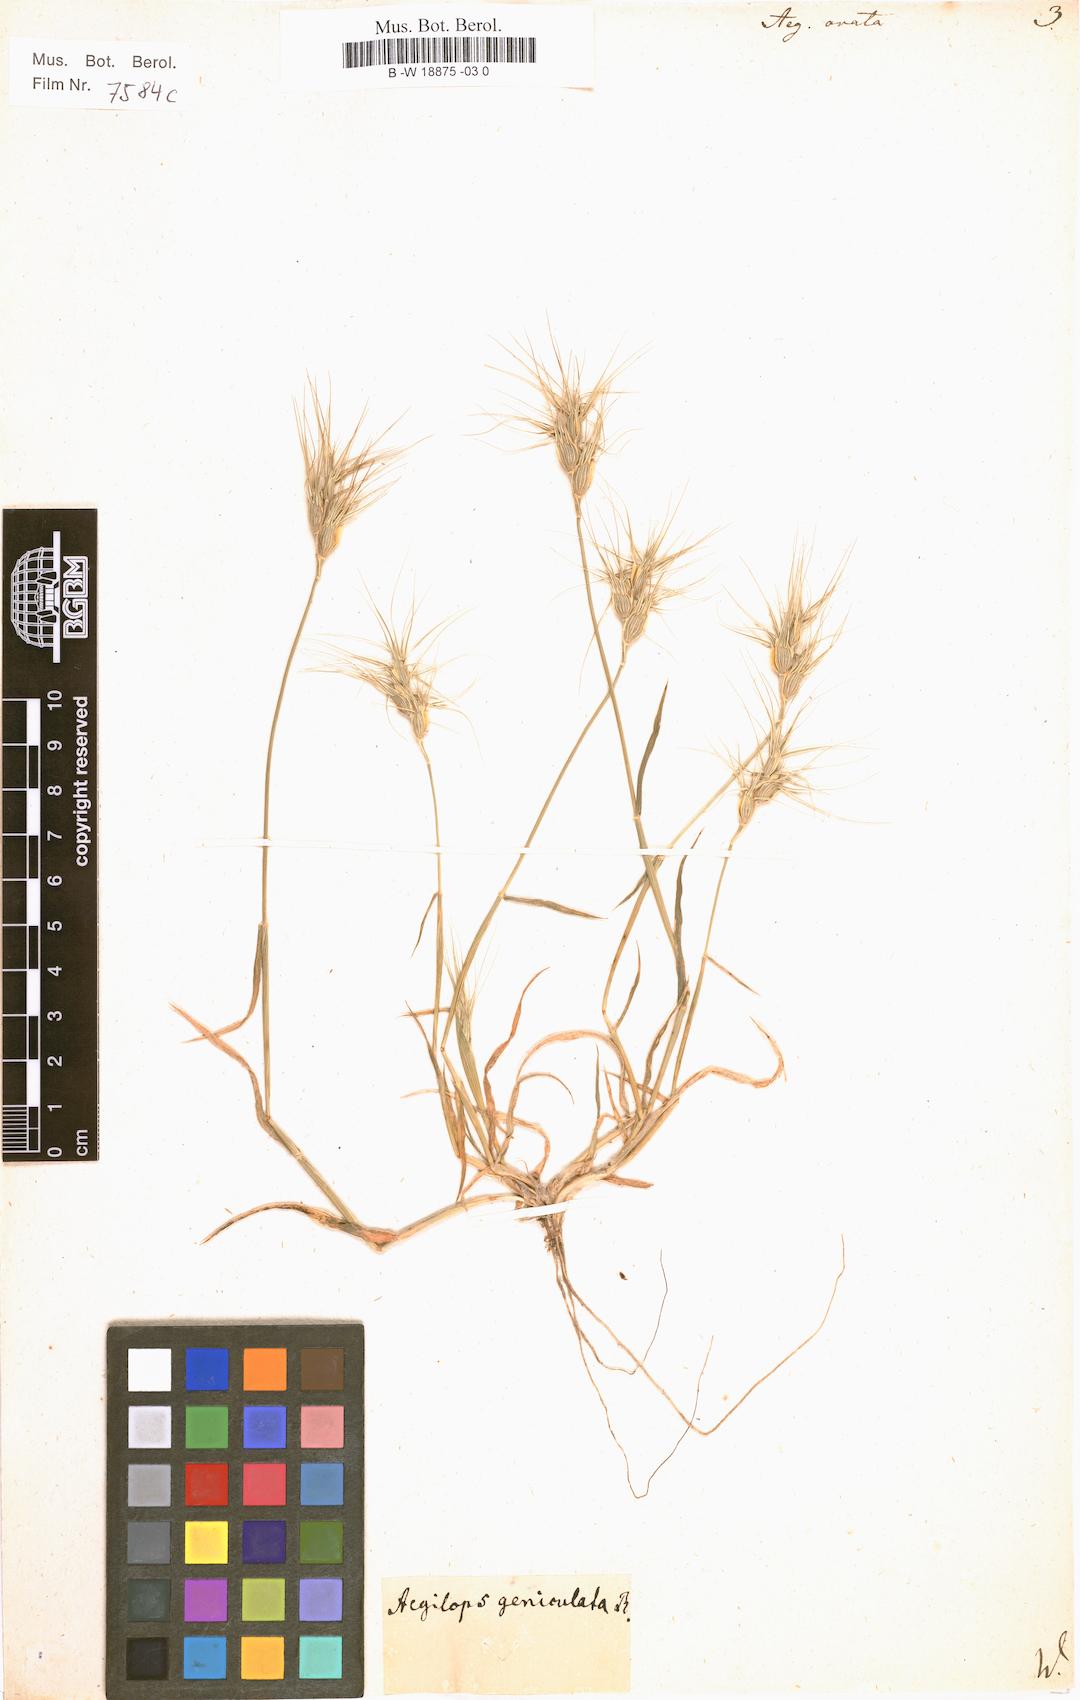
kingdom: Plantae
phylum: Tracheophyta
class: Liliopsida
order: Poales
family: Poaceae
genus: Aegilops
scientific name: Aegilops geniculata
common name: Ovate goat grass
